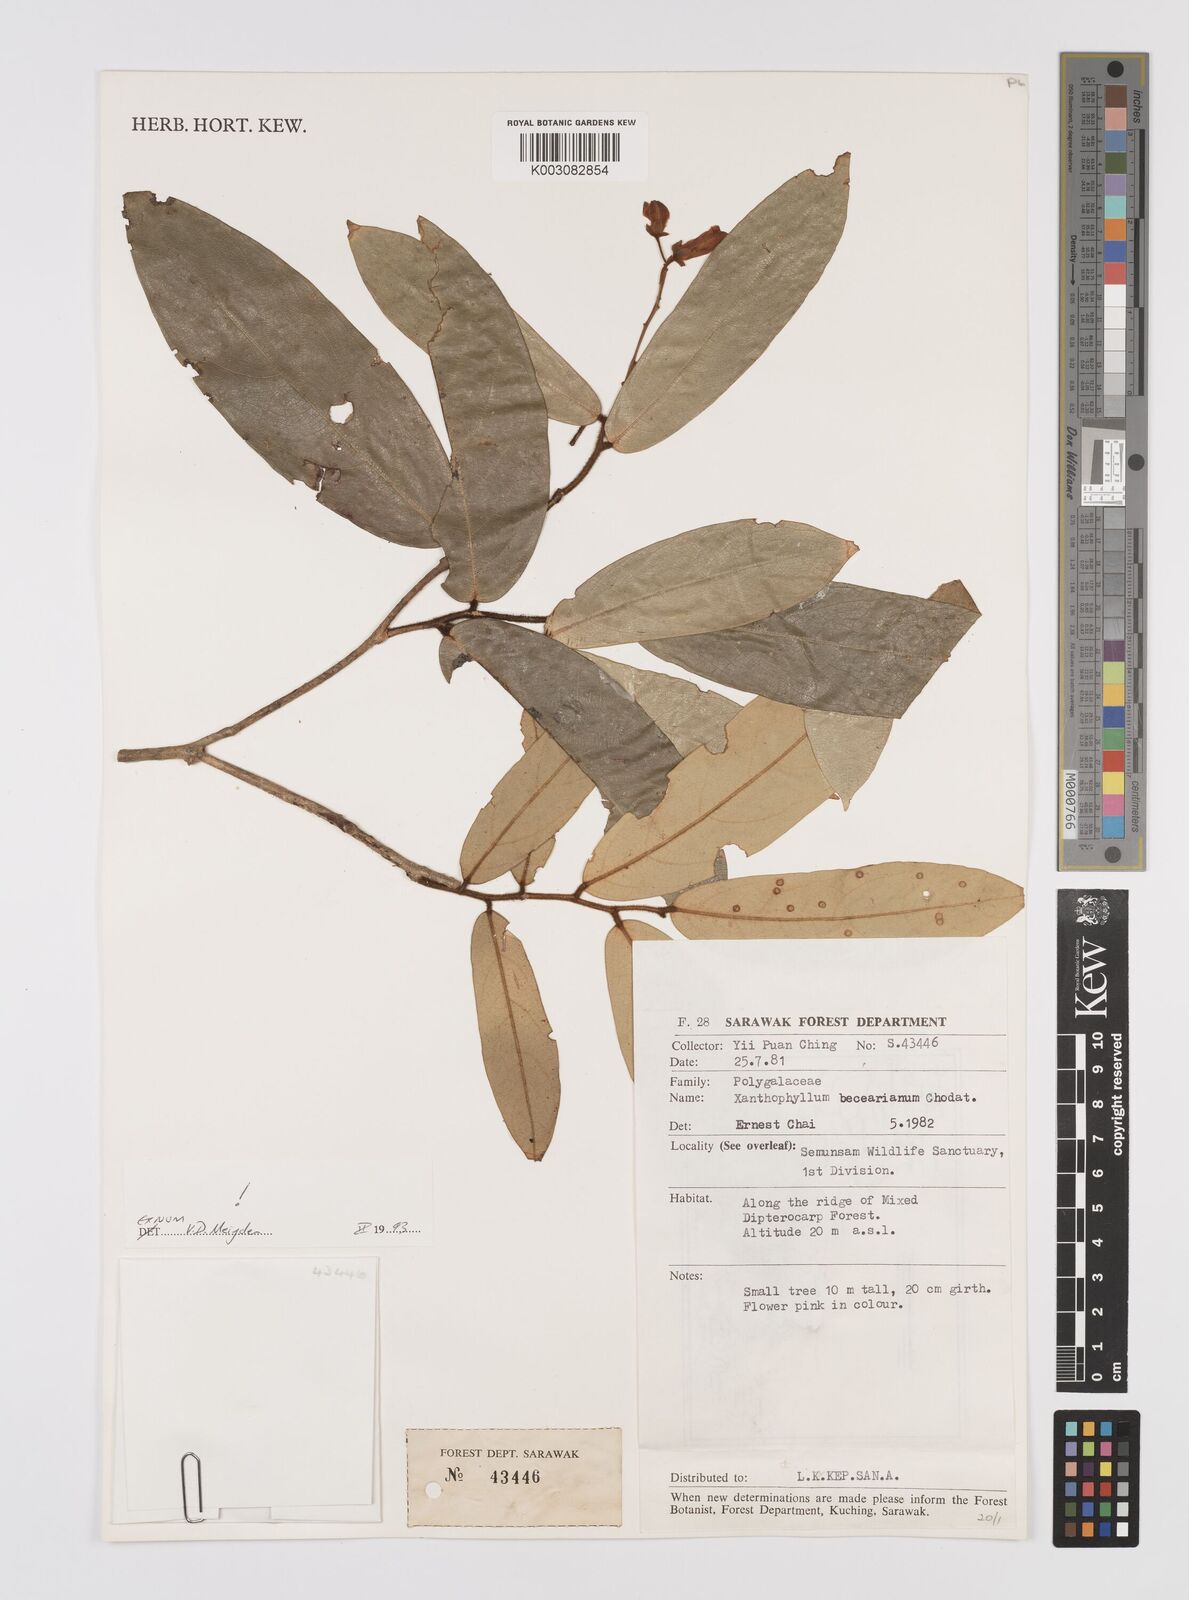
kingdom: Plantae
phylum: Tracheophyta
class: Magnoliopsida
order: Fabales
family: Polygalaceae
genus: Xanthophyllum
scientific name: Xanthophyllum beccarianum
